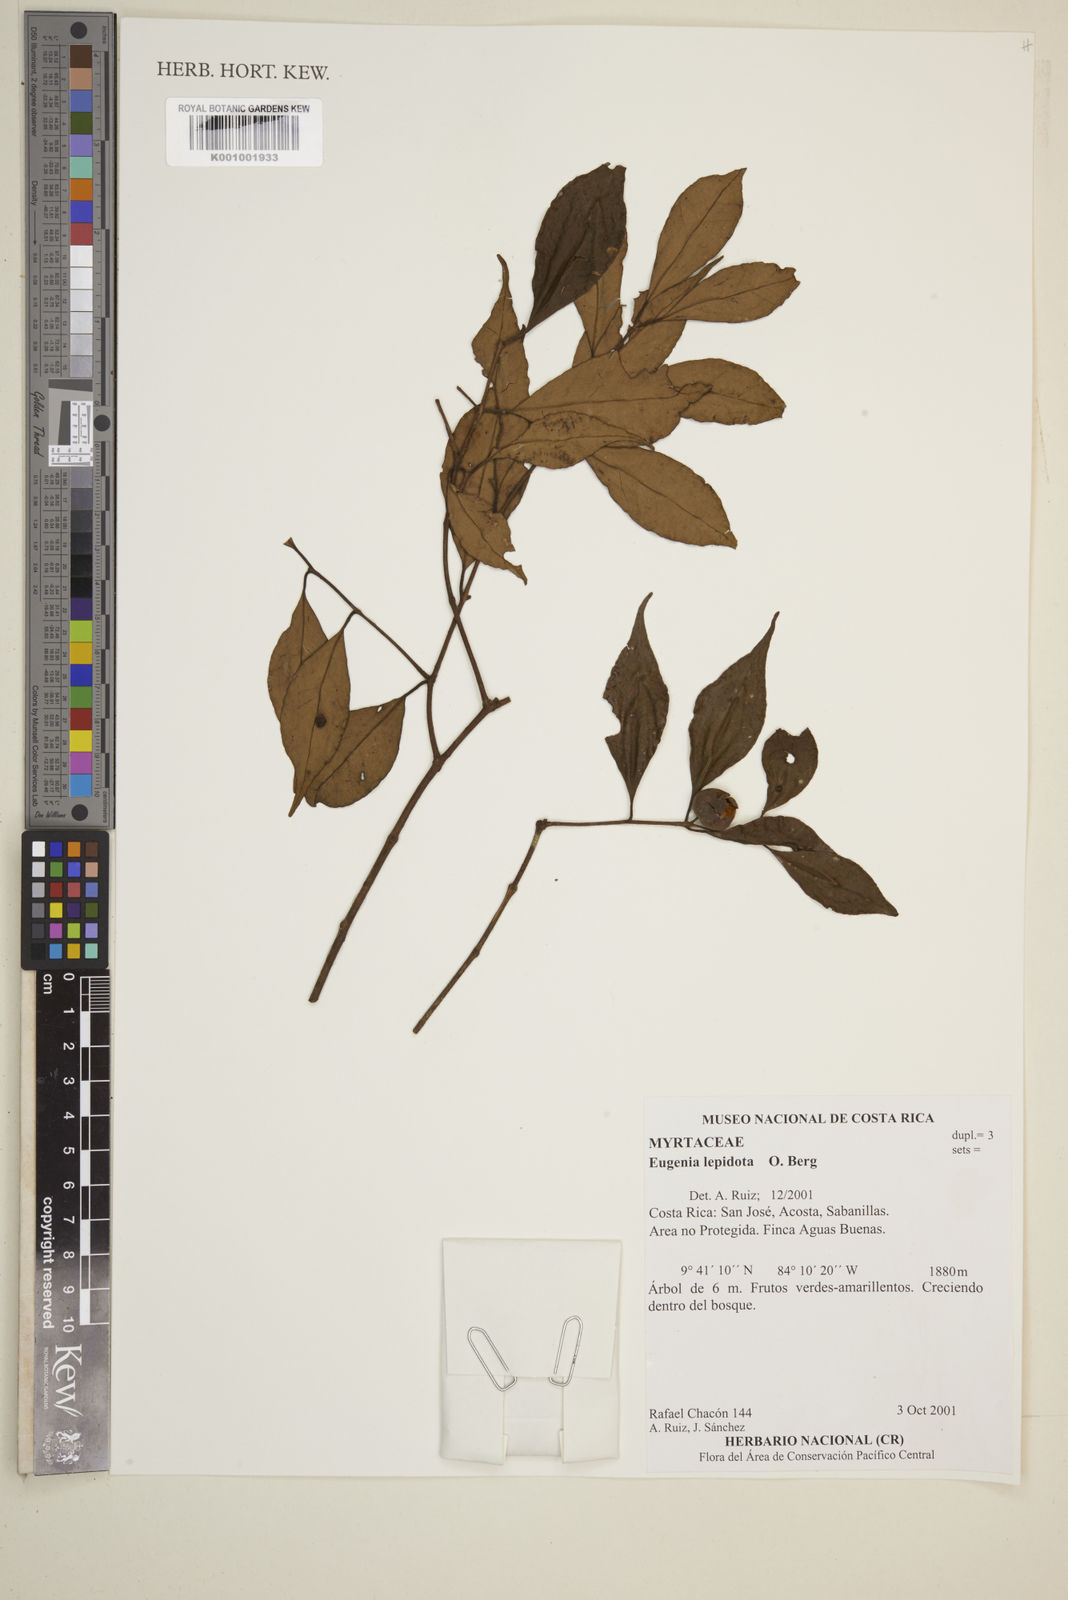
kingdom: Plantae
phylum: Tracheophyta
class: Magnoliopsida
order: Myrtales
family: Myrtaceae
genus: Eugenia
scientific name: Eugenia lepidota
